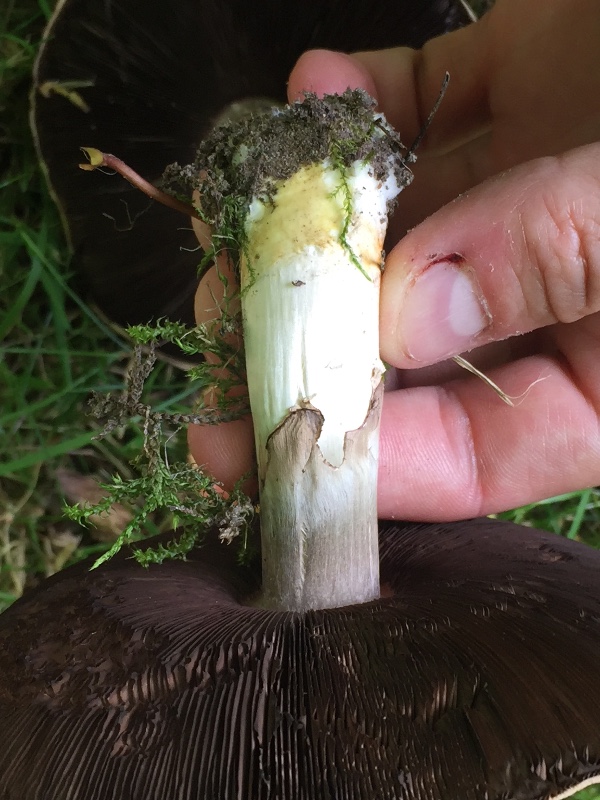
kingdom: Fungi
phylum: Basidiomycota
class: Agaricomycetes
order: Agaricales
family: Agaricaceae
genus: Agaricus
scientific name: Agaricus xanthodermus
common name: karbol-champignon
